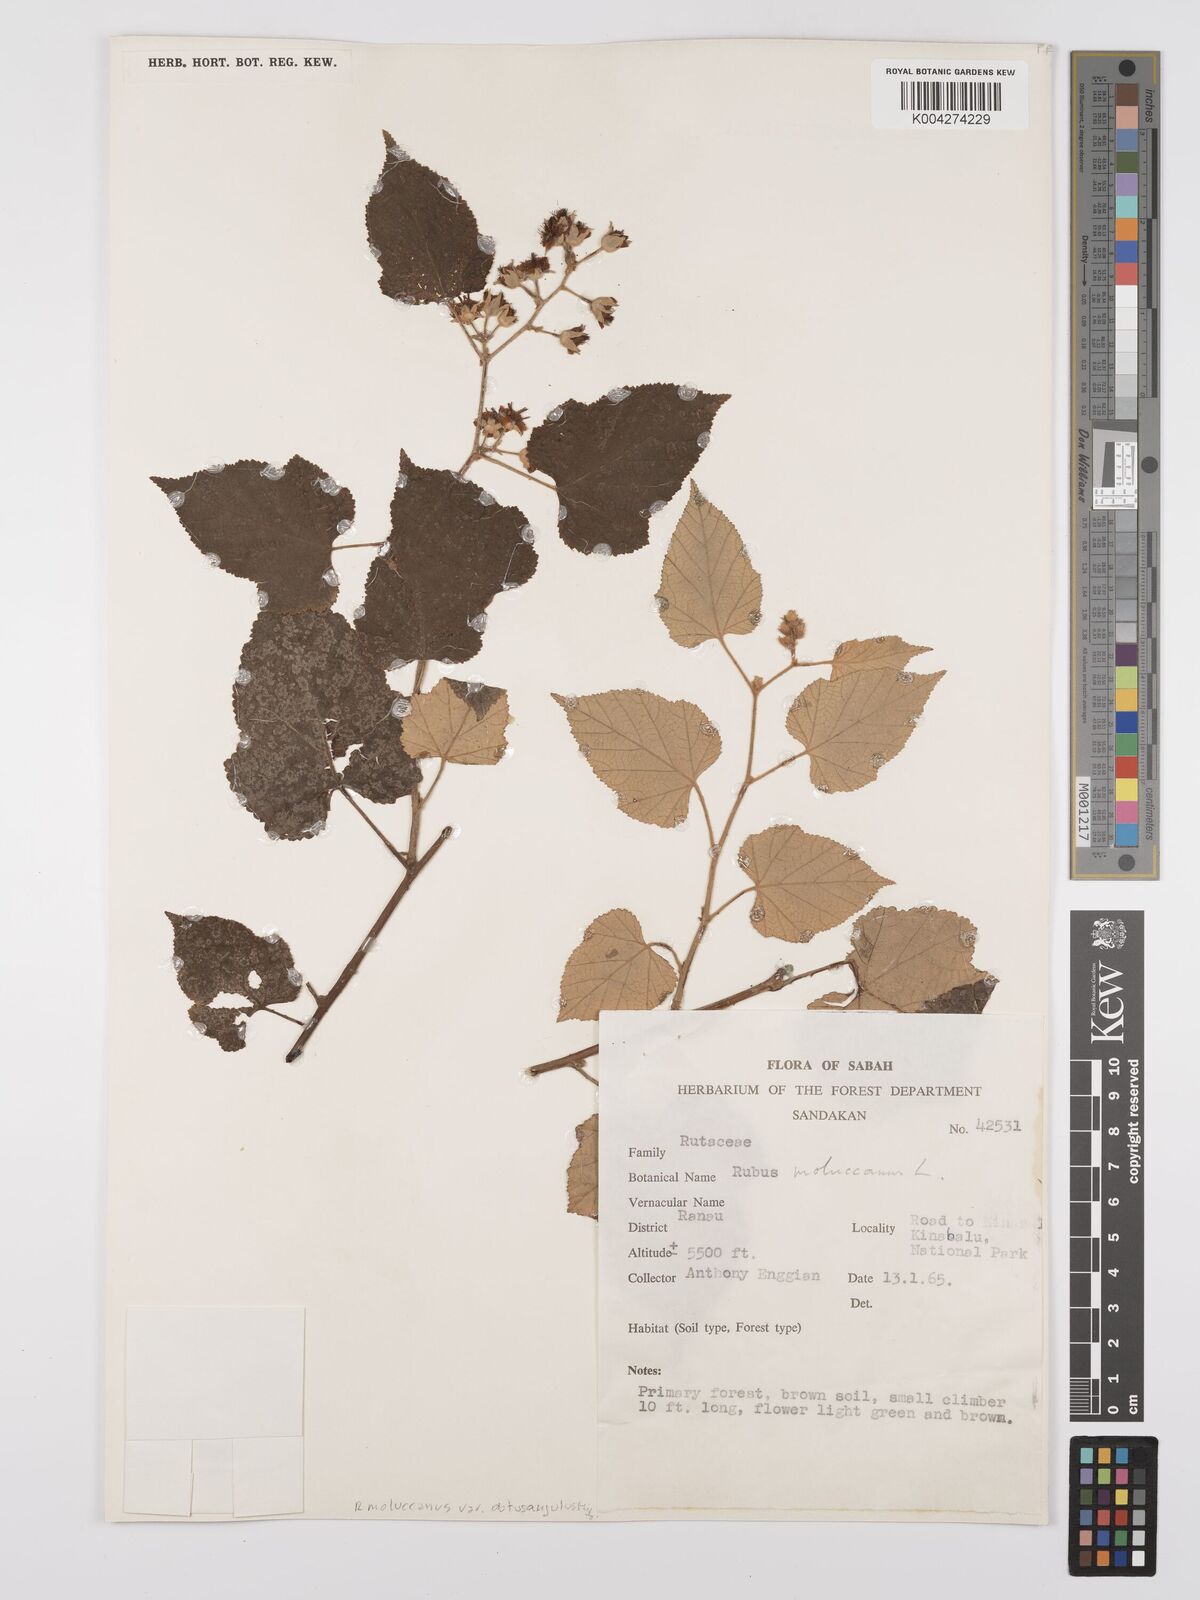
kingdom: Plantae
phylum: Tracheophyta
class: Magnoliopsida
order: Rosales
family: Rosaceae
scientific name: Rosaceae
